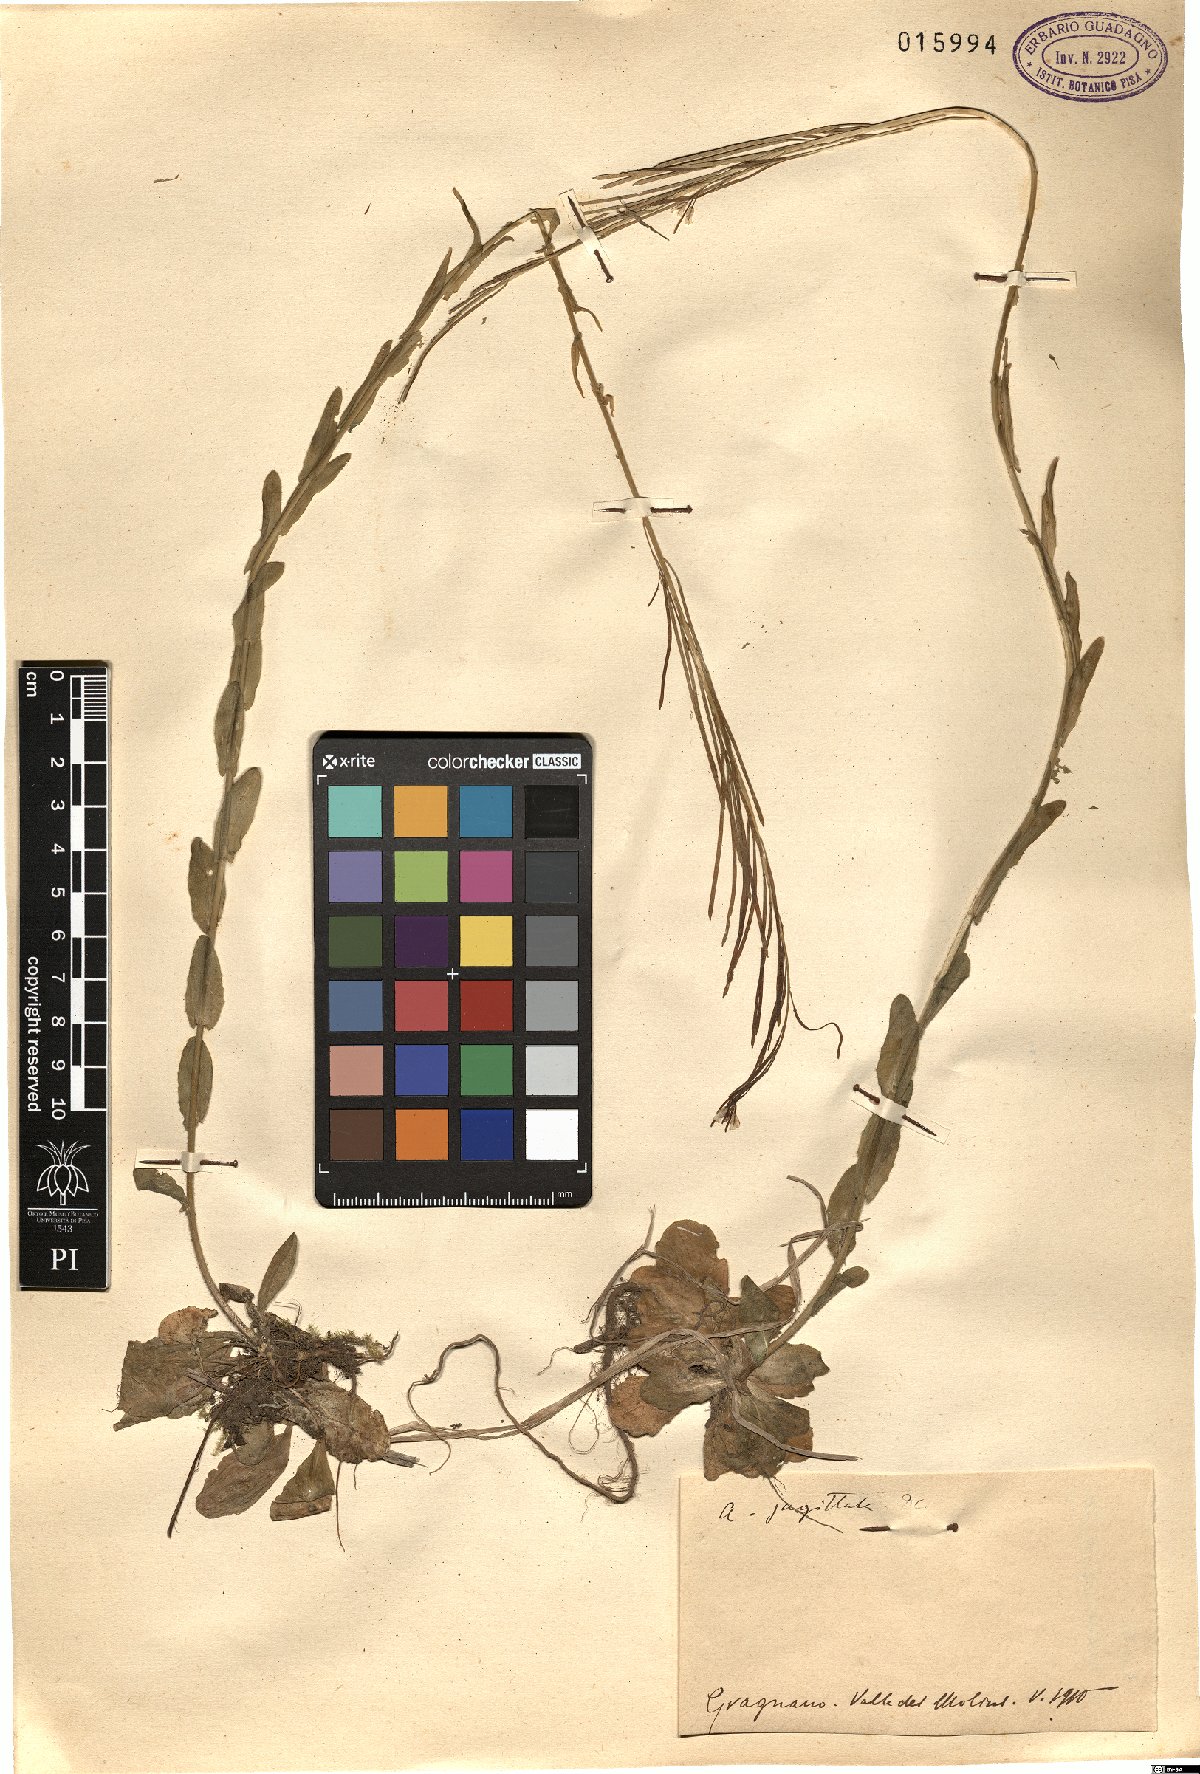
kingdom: Plantae
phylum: Tracheophyta
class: Magnoliopsida
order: Brassicales
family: Brassicaceae
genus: Arabis
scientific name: Arabis sagittata
